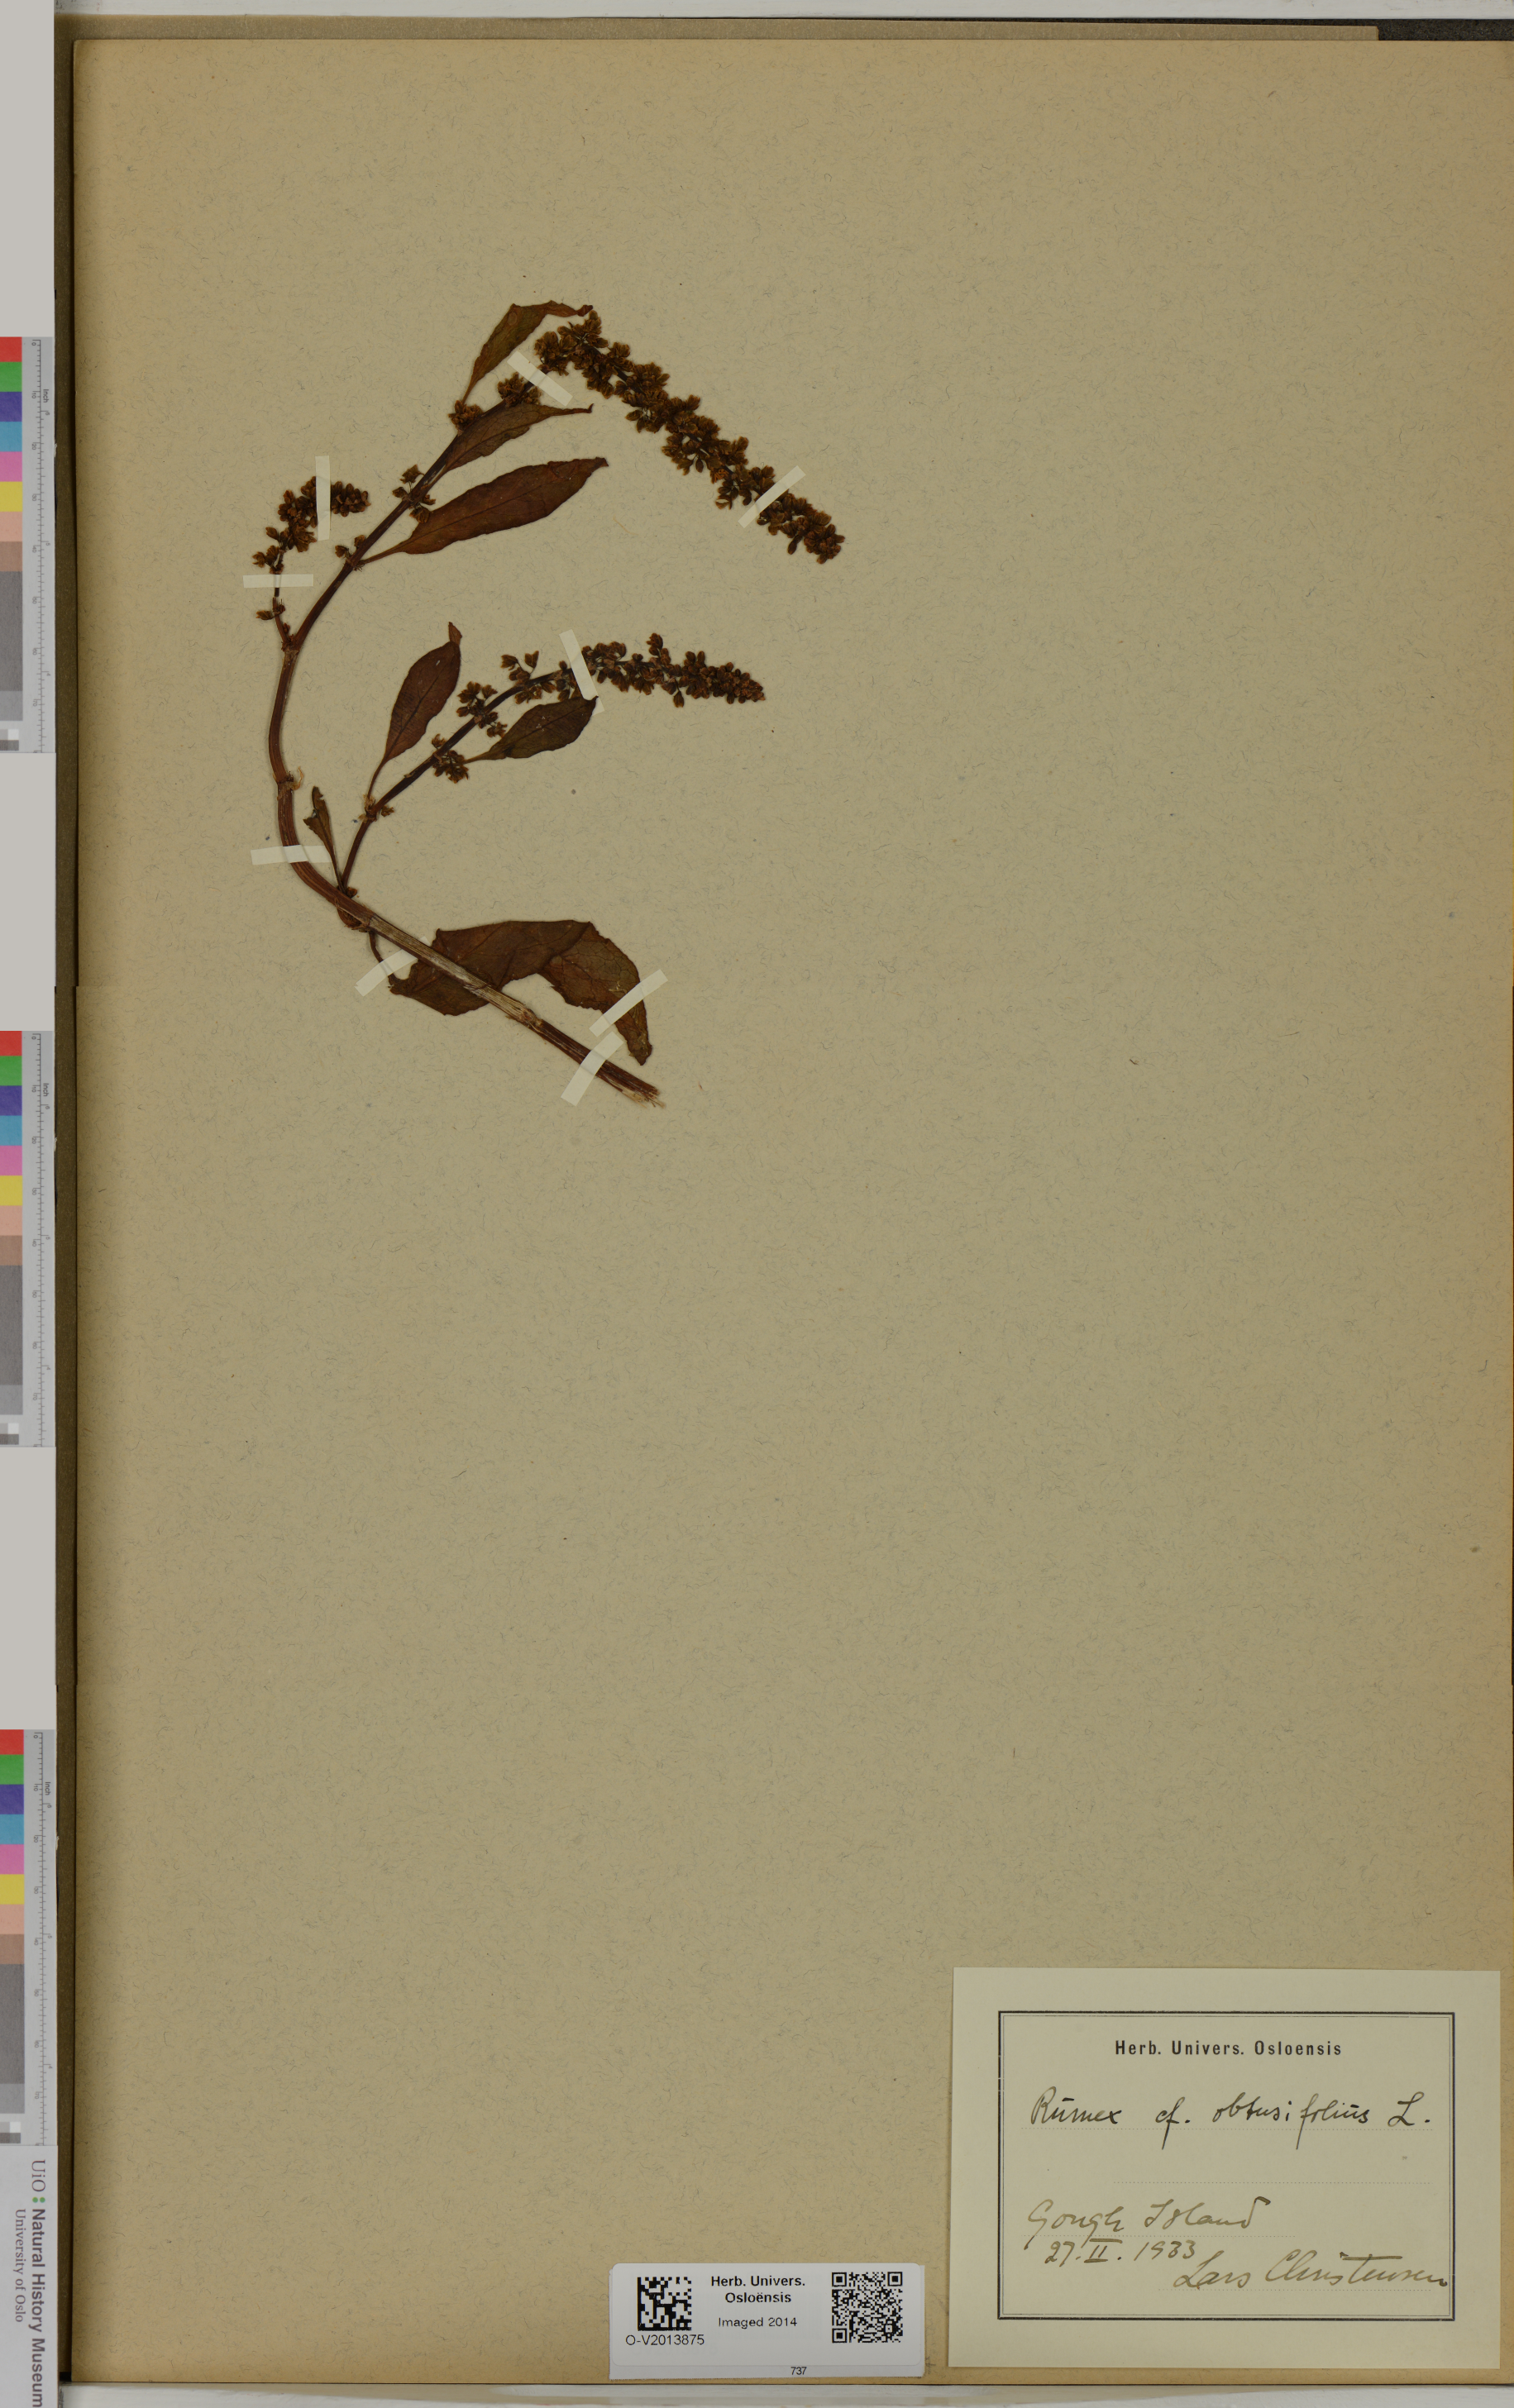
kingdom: Plantae
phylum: Tracheophyta
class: Magnoliopsida
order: Caryophyllales
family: Polygonaceae
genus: Rumex
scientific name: Rumex obtusifolius
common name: Bitter dock
